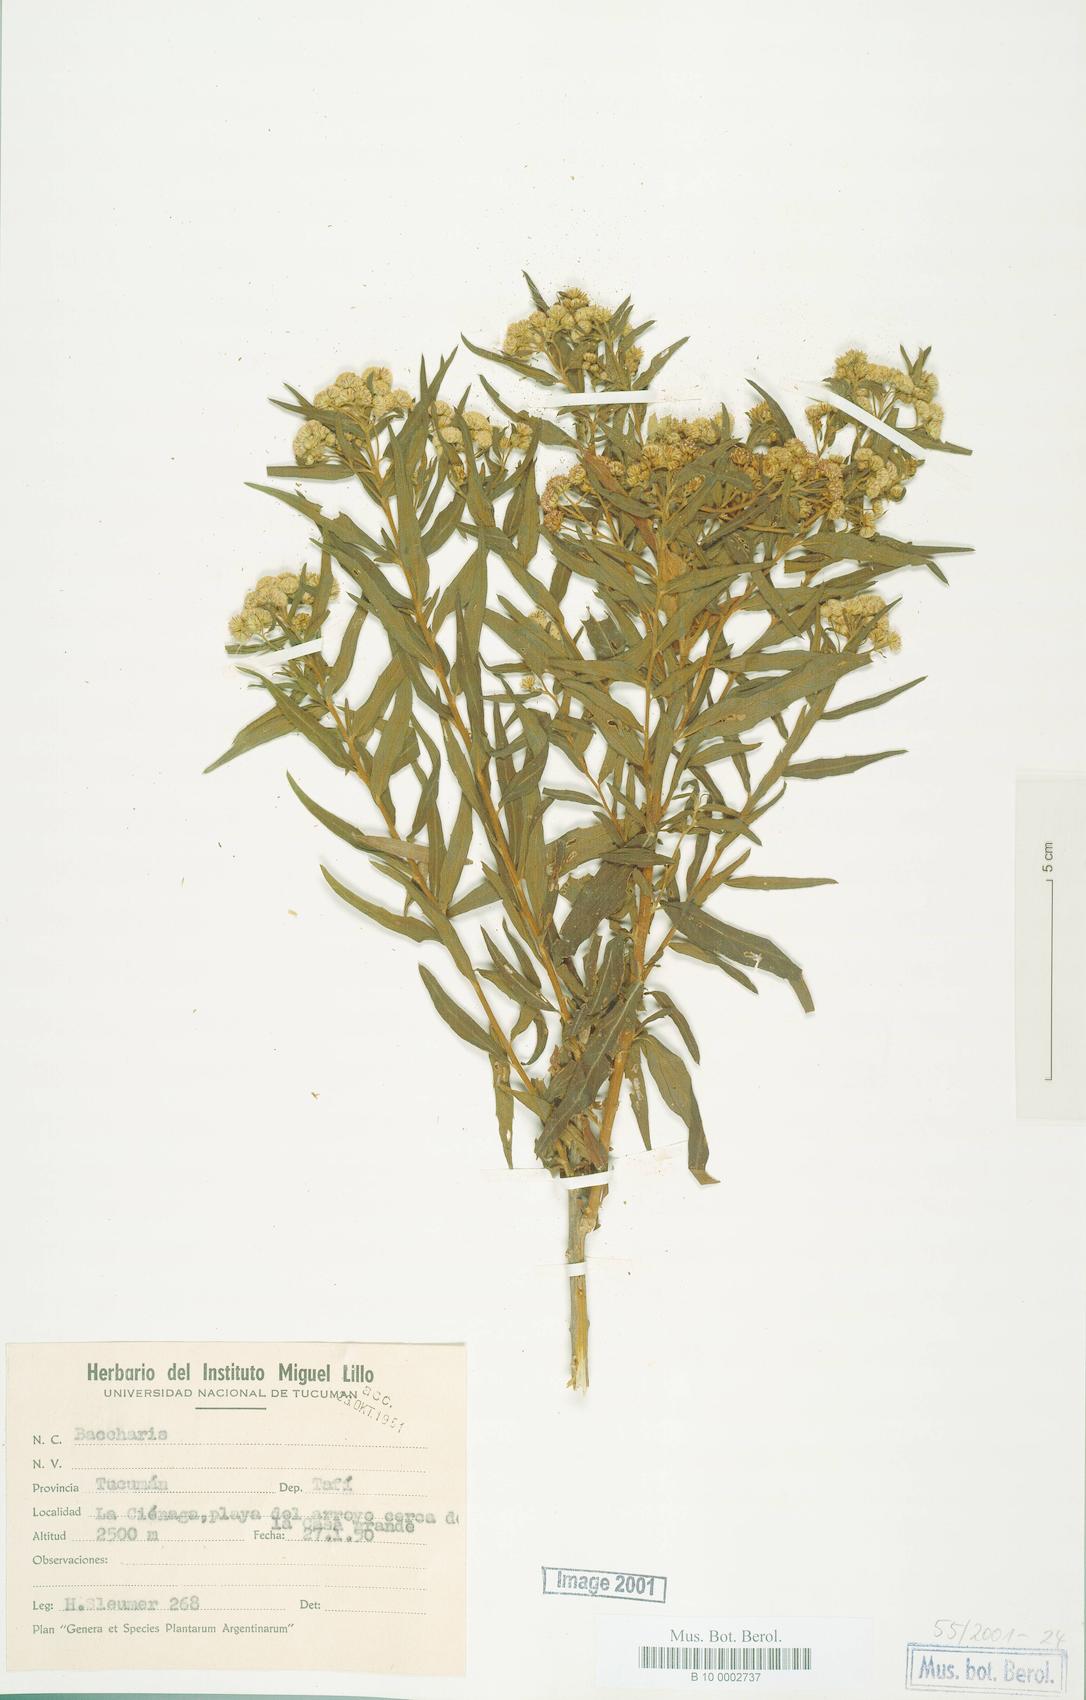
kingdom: Plantae
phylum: Tracheophyta
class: Magnoliopsida
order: Asterales
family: Asteraceae
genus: Baccharis
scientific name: Baccharis
